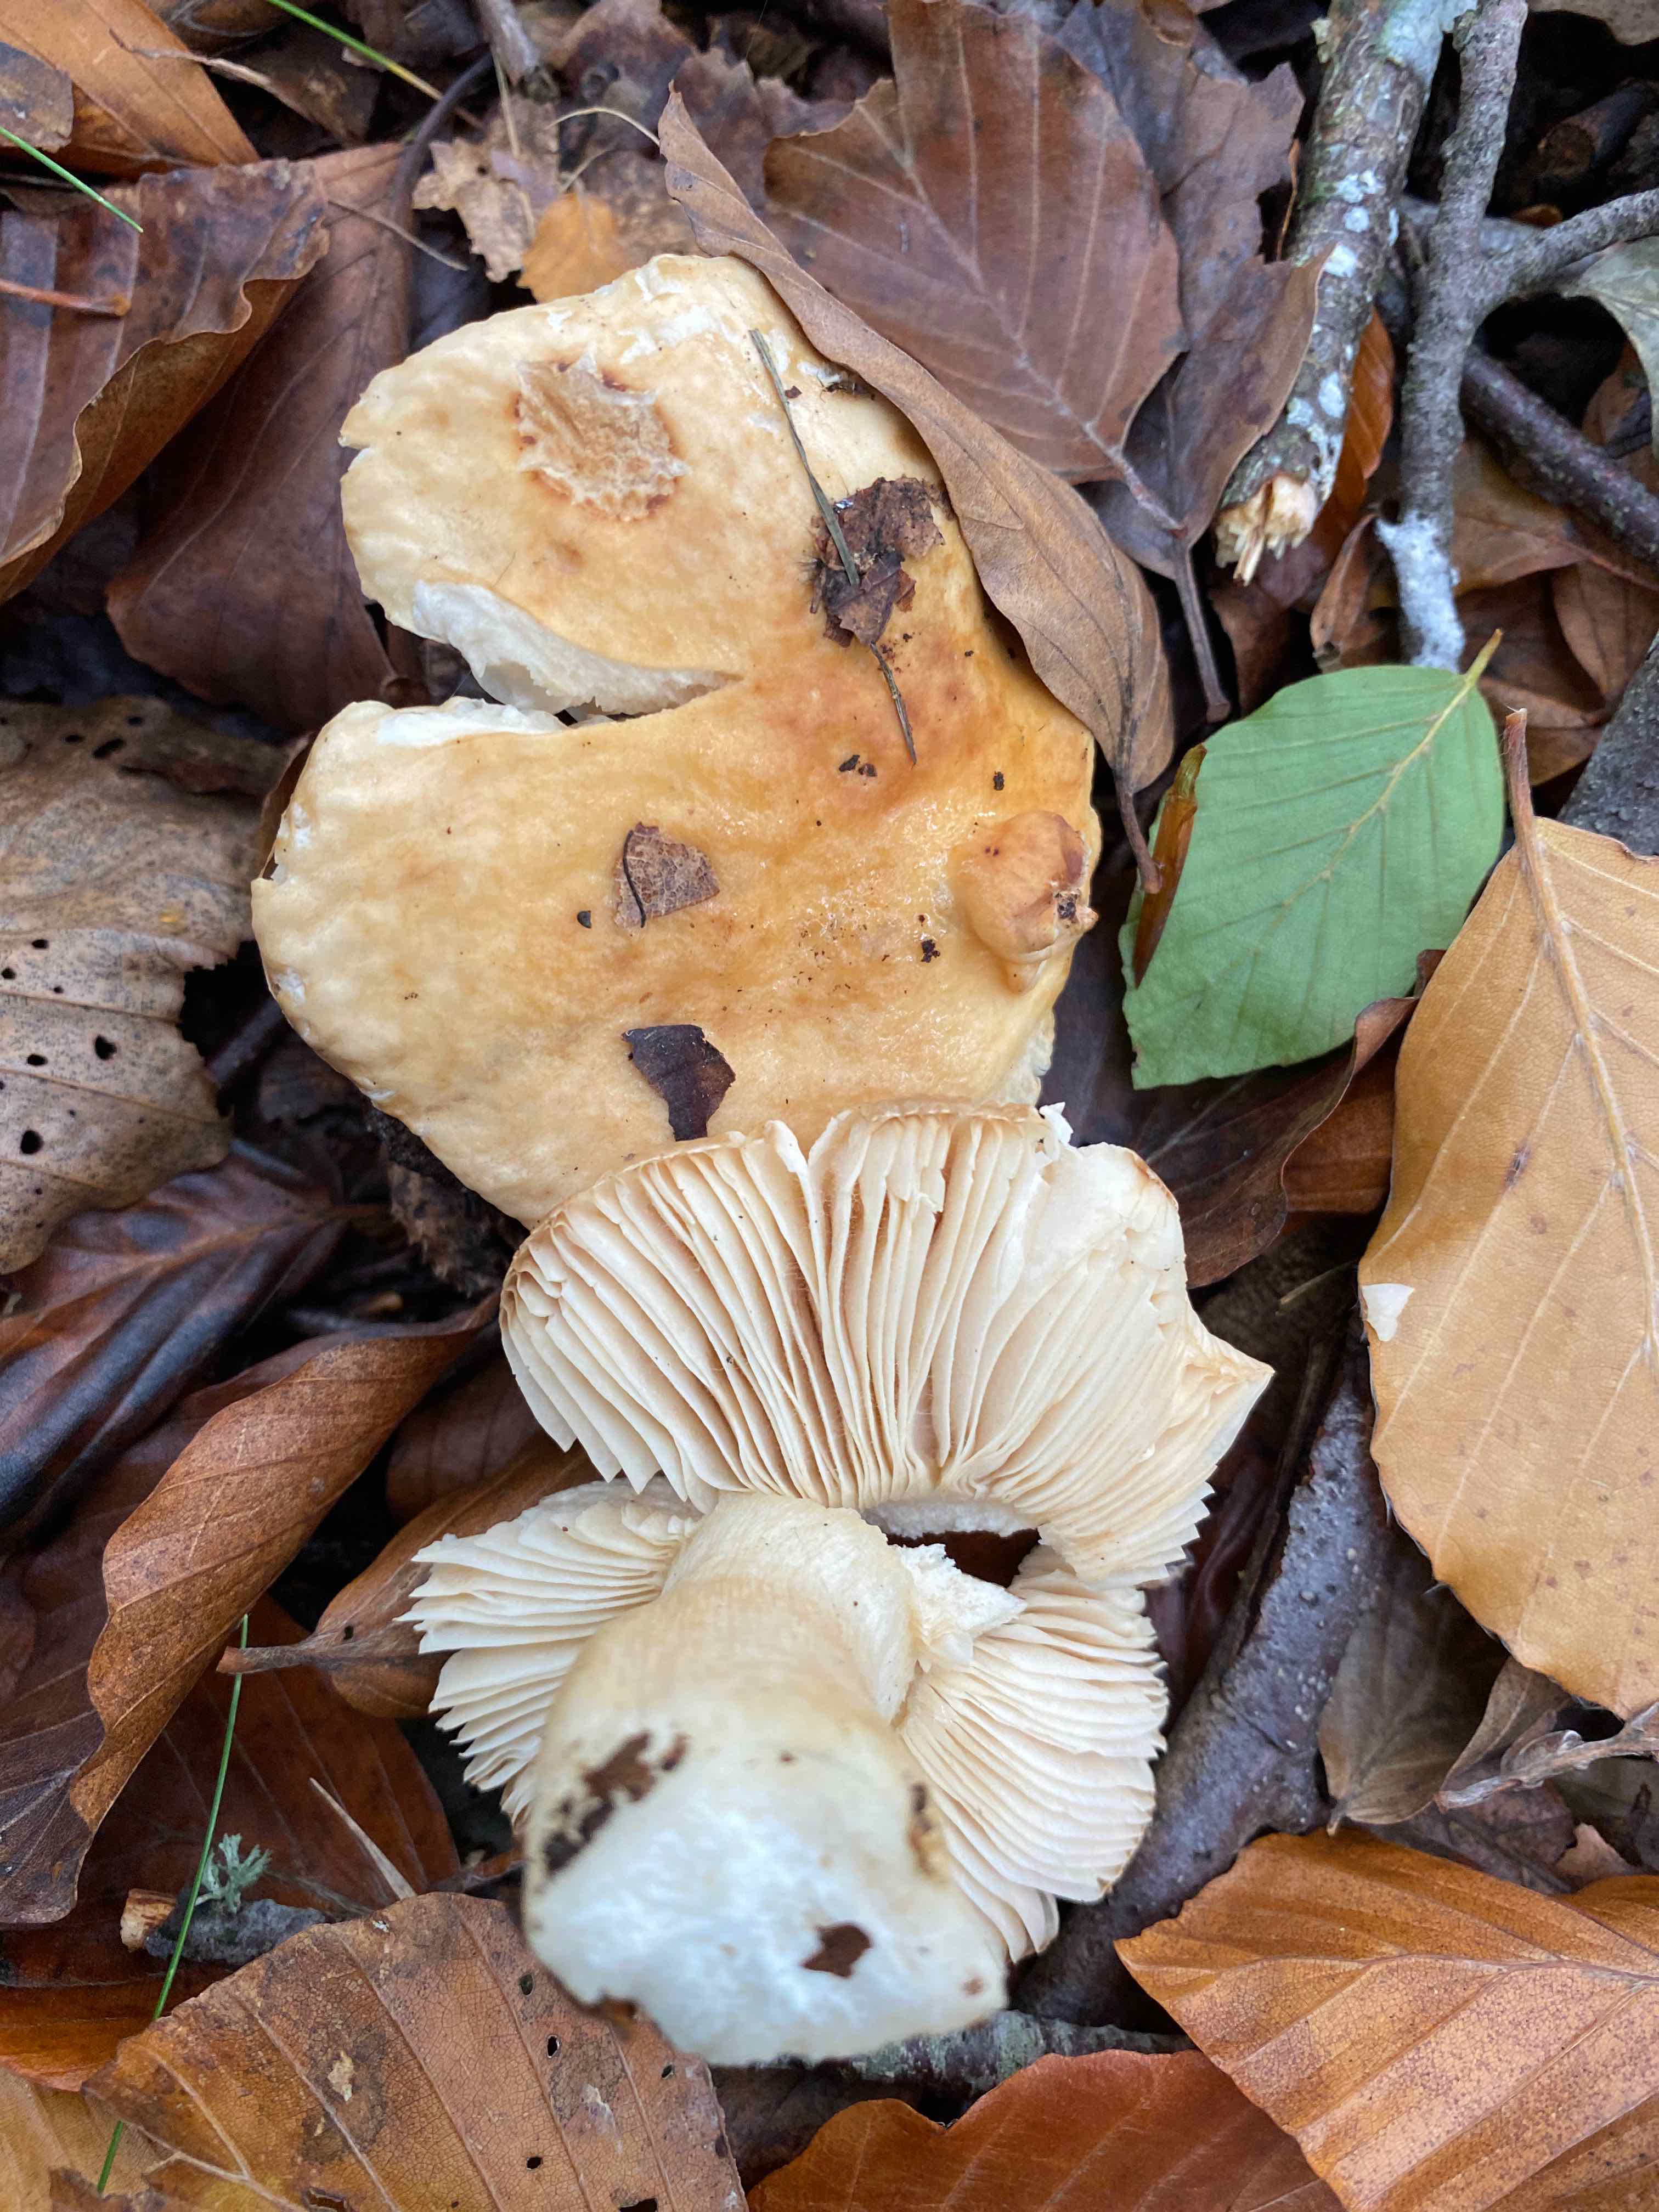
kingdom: Fungi
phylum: Basidiomycota
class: Agaricomycetes
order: Russulales
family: Russulaceae
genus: Russula
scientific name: Russula fellea
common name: galde-skørhat
